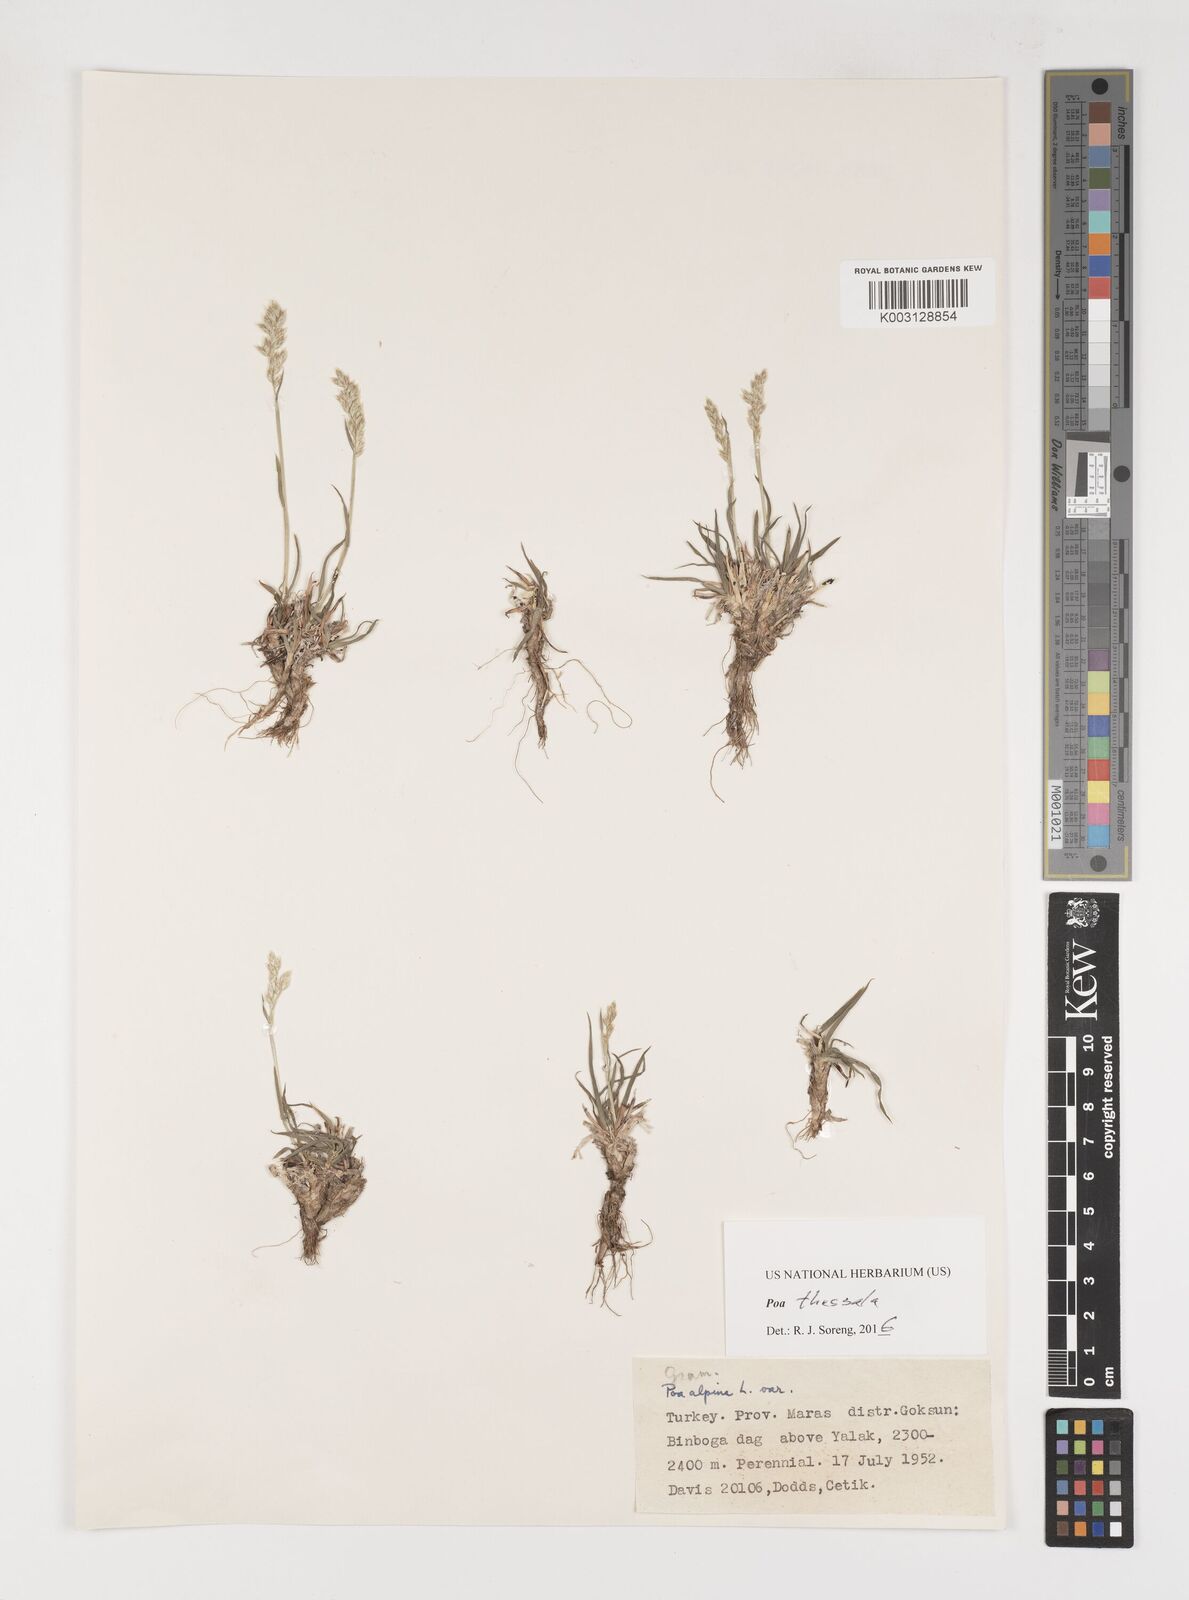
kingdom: Plantae
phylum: Tracheophyta
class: Liliopsida
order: Poales
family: Poaceae
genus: Poa
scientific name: Poa thessala
